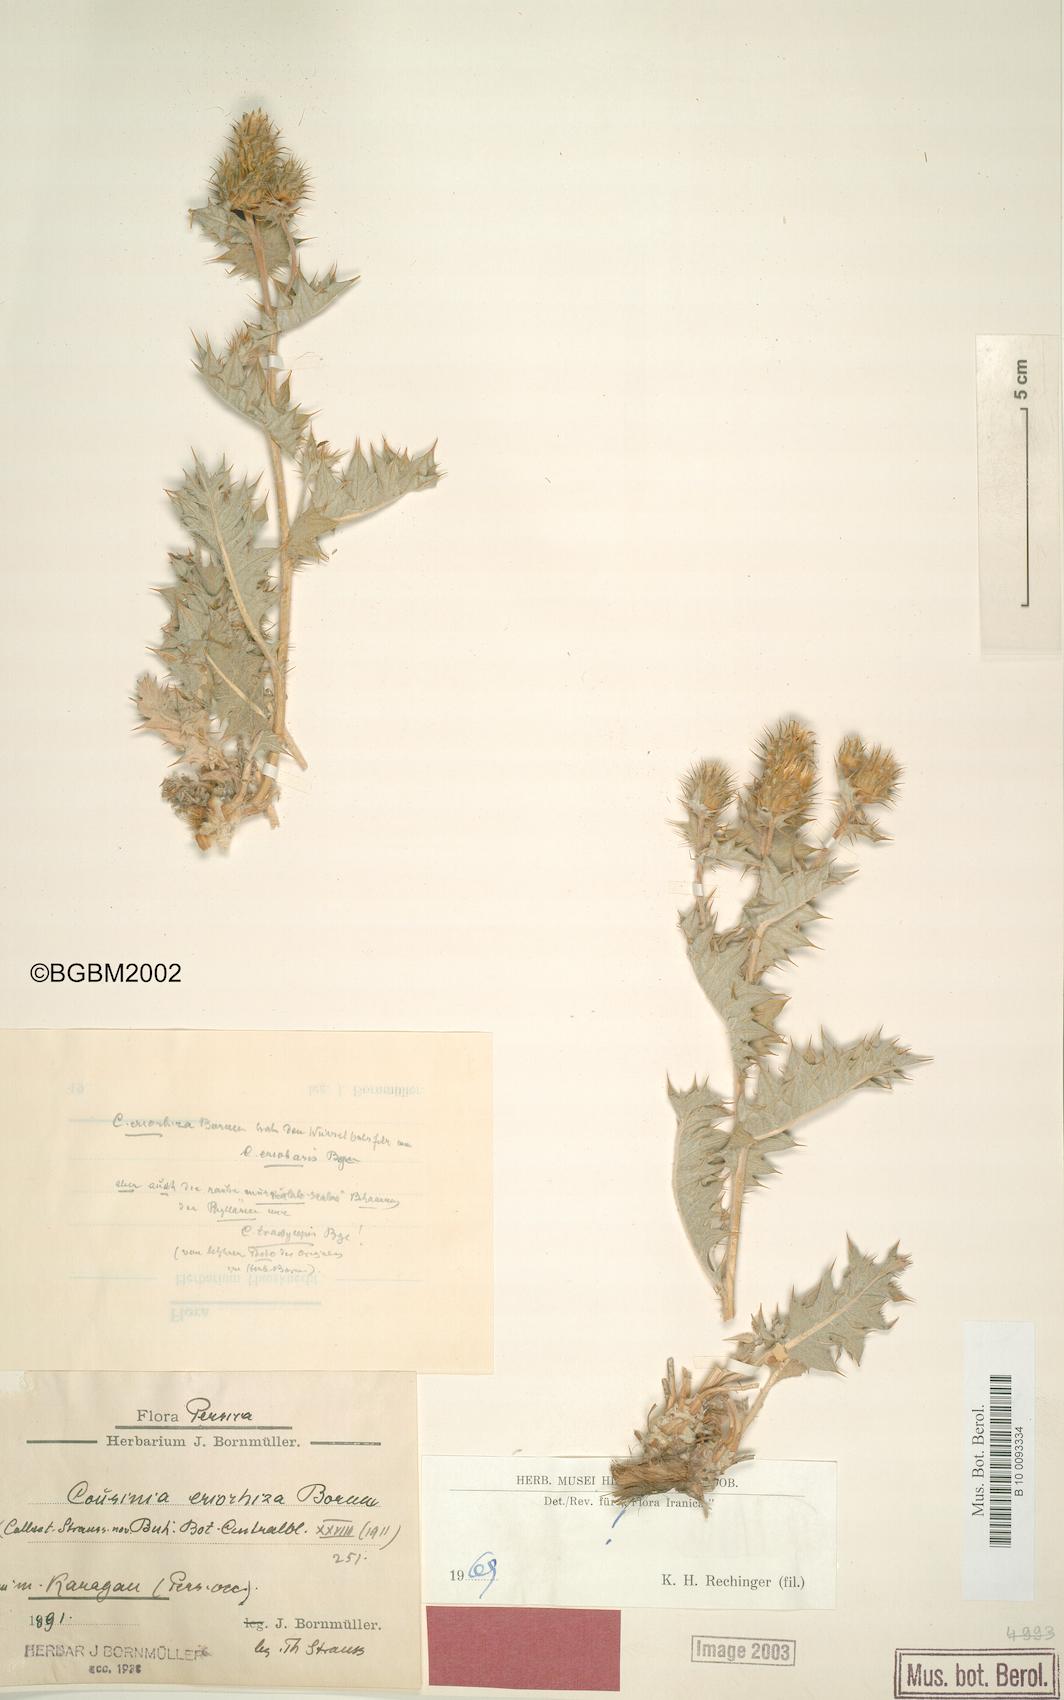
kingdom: Plantae
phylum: Tracheophyta
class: Magnoliopsida
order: Asterales
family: Asteraceae
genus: Cousinia
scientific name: Cousinia eriorrhiza
